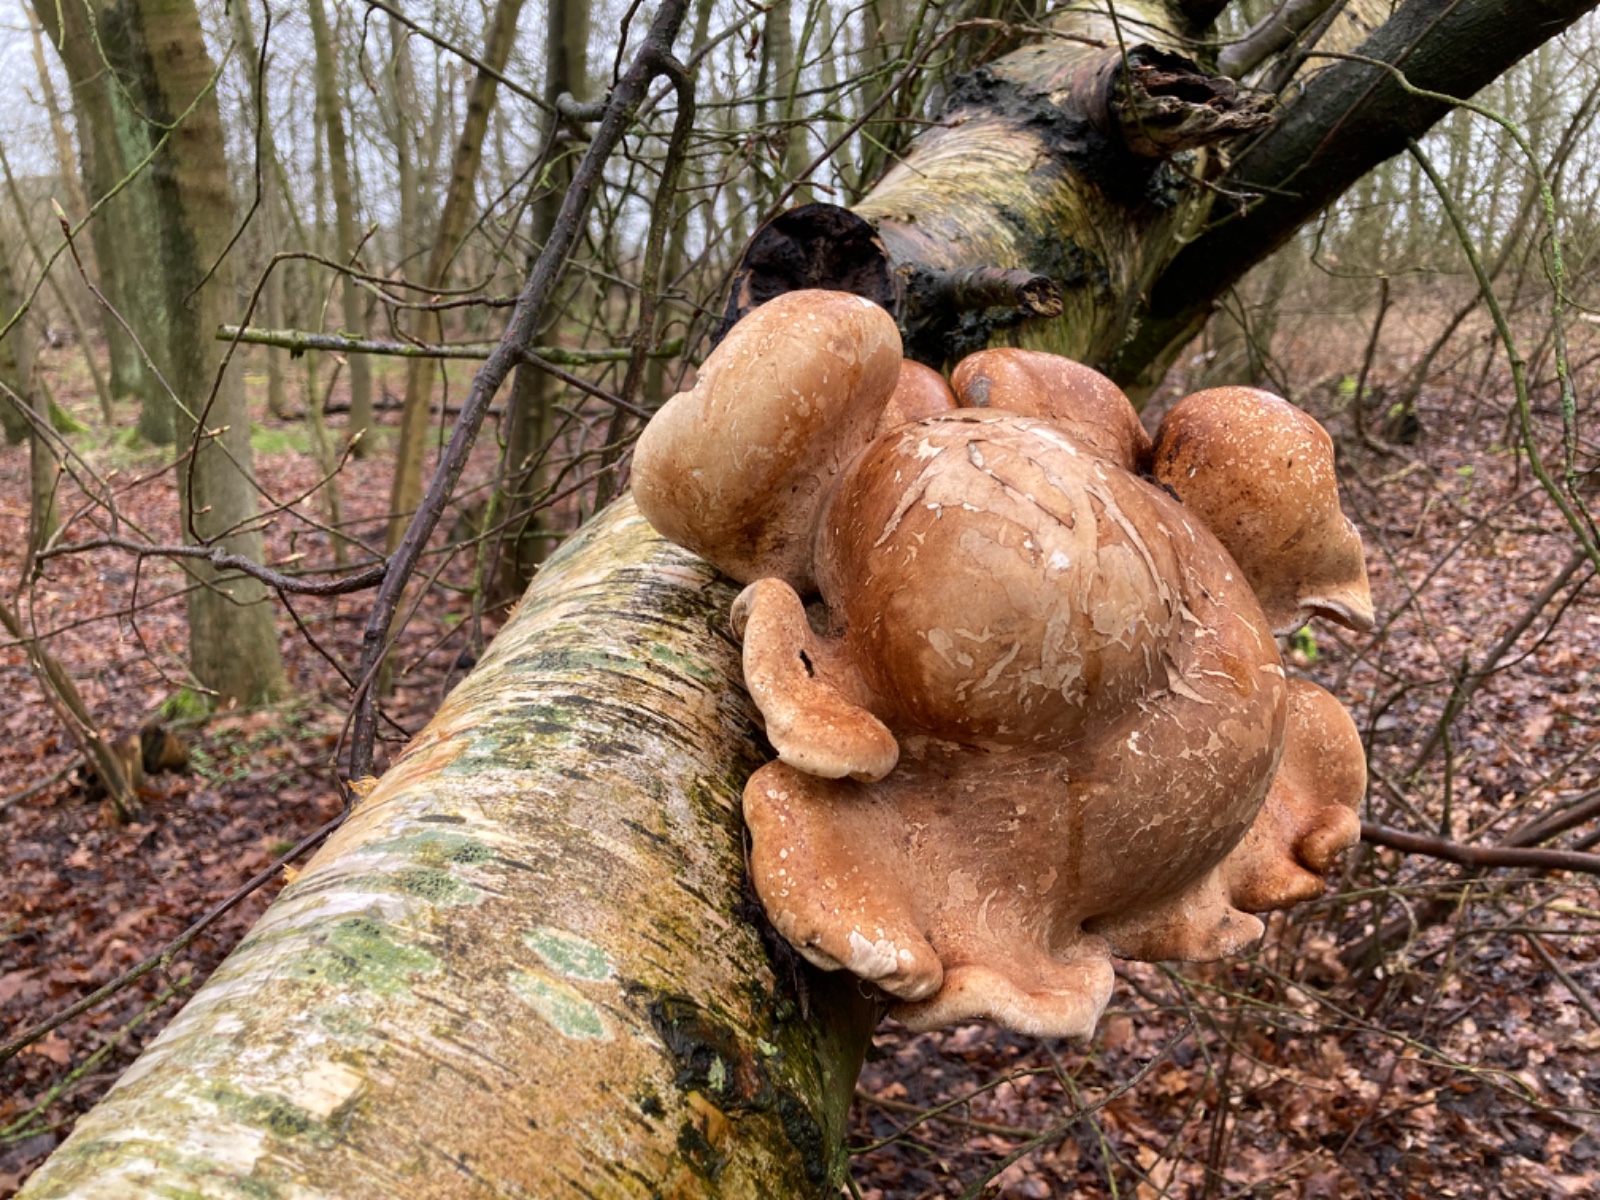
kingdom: Fungi
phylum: Basidiomycota
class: Agaricomycetes
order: Polyporales
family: Fomitopsidaceae
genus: Fomitopsis
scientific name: Fomitopsis betulina
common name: birkeporesvamp
